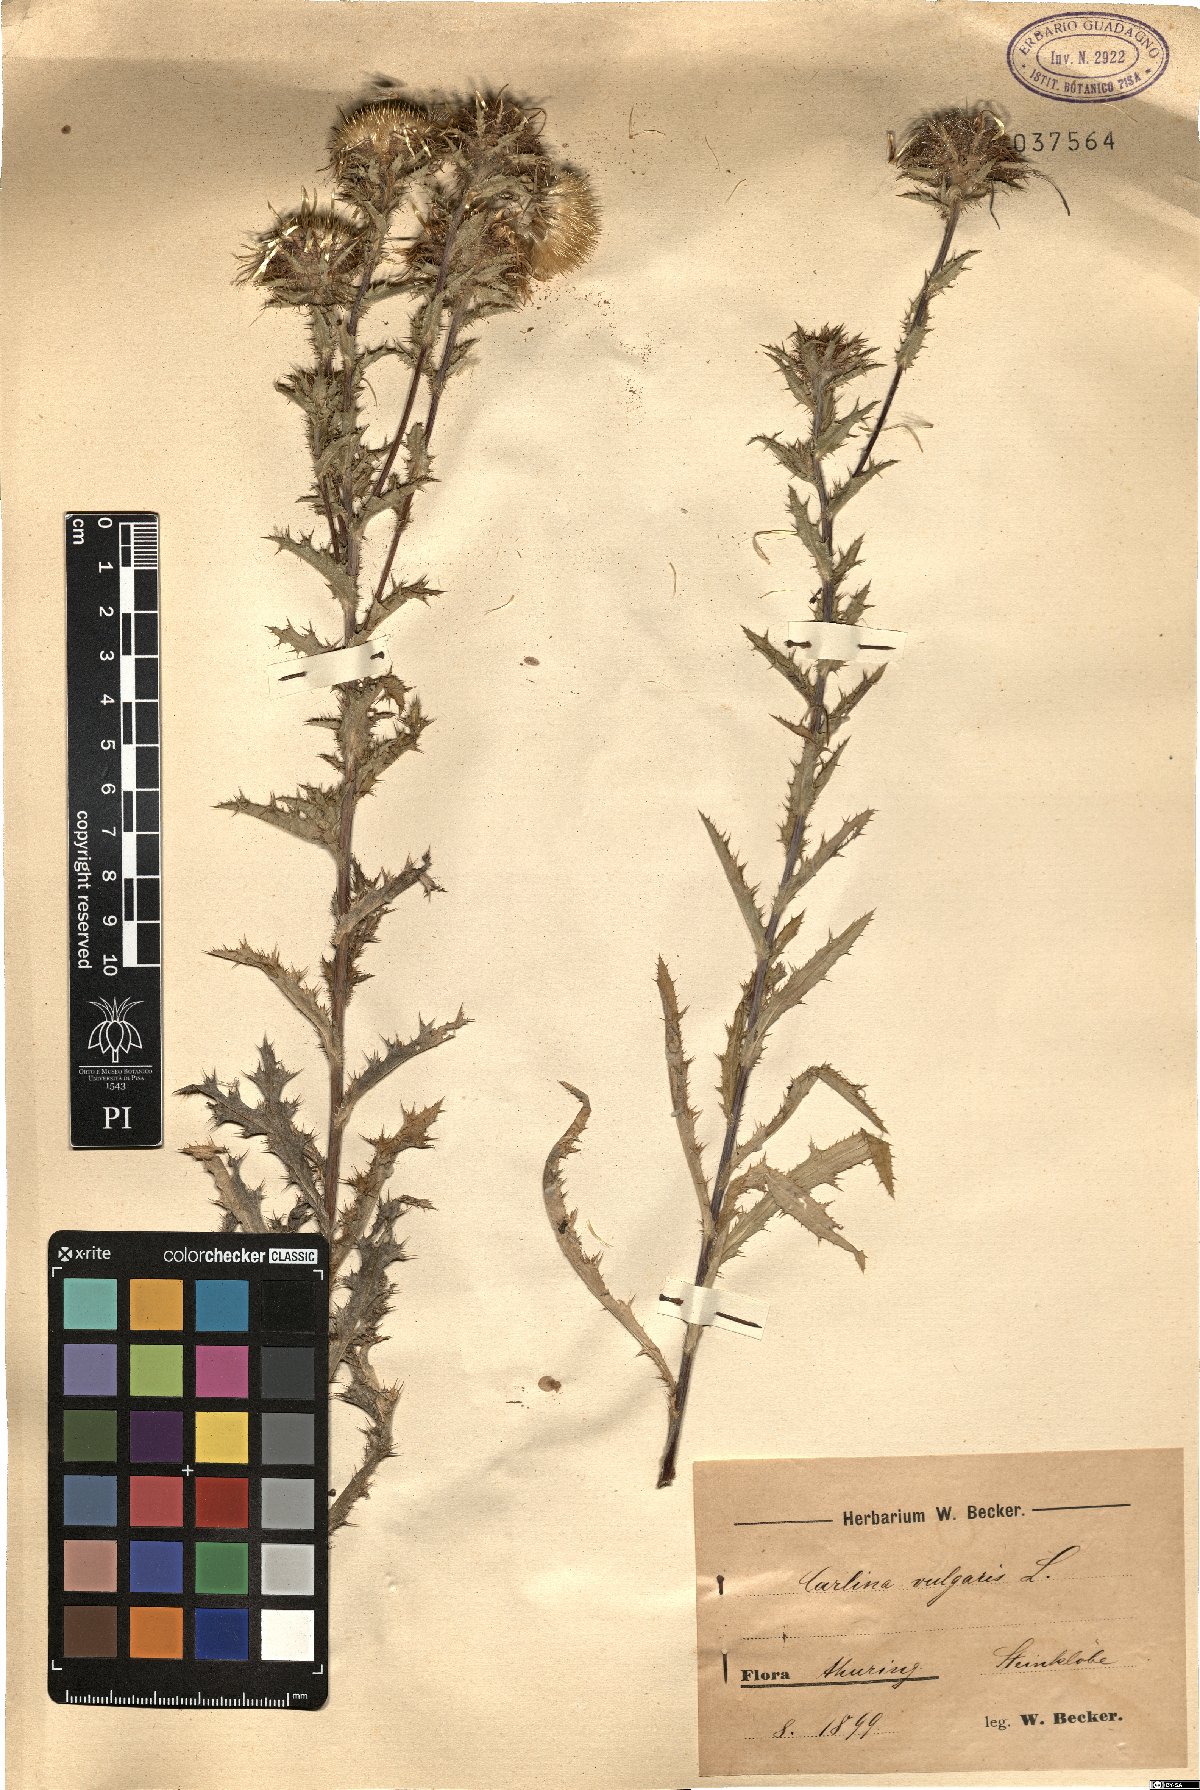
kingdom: Plantae
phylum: Tracheophyta
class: Magnoliopsida
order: Asterales
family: Asteraceae
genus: Carlina
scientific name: Carlina vulgaris
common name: Carline thistle
